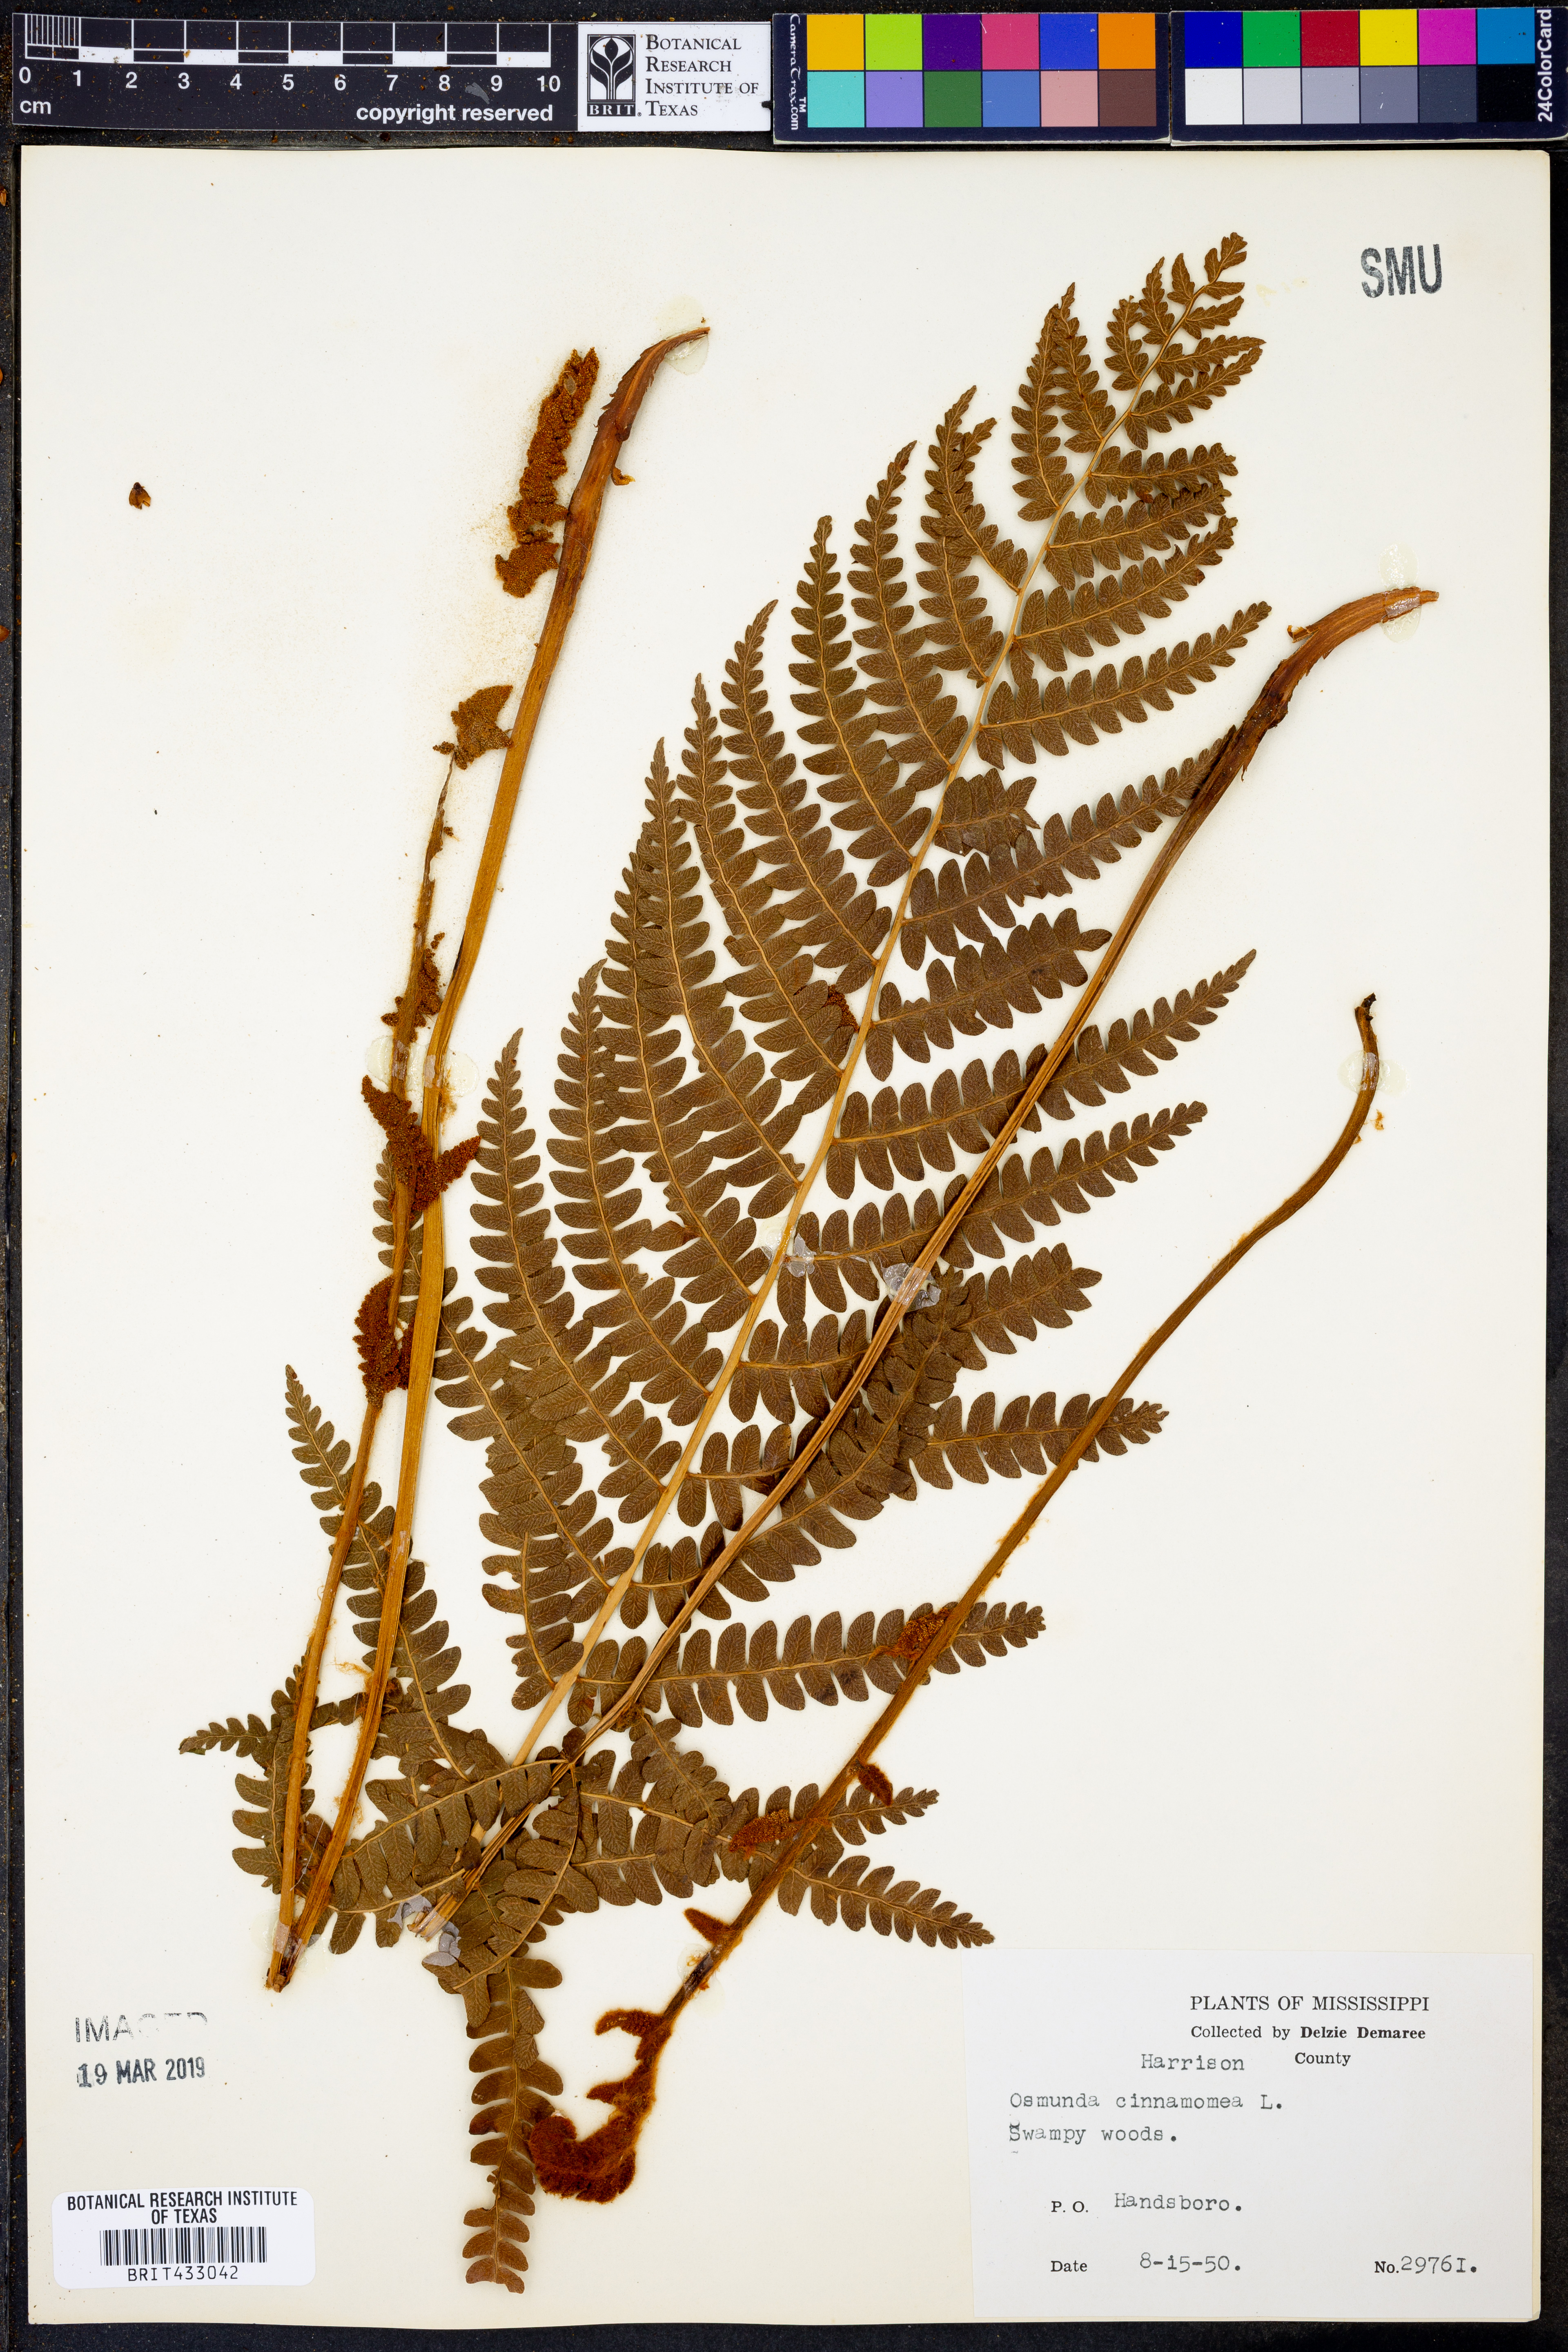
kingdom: Plantae
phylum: Tracheophyta
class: Polypodiopsida
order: Osmundales
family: Osmundaceae
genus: Osmundastrum
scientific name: Osmundastrum cinnamomeum
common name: Cinnamon fern
